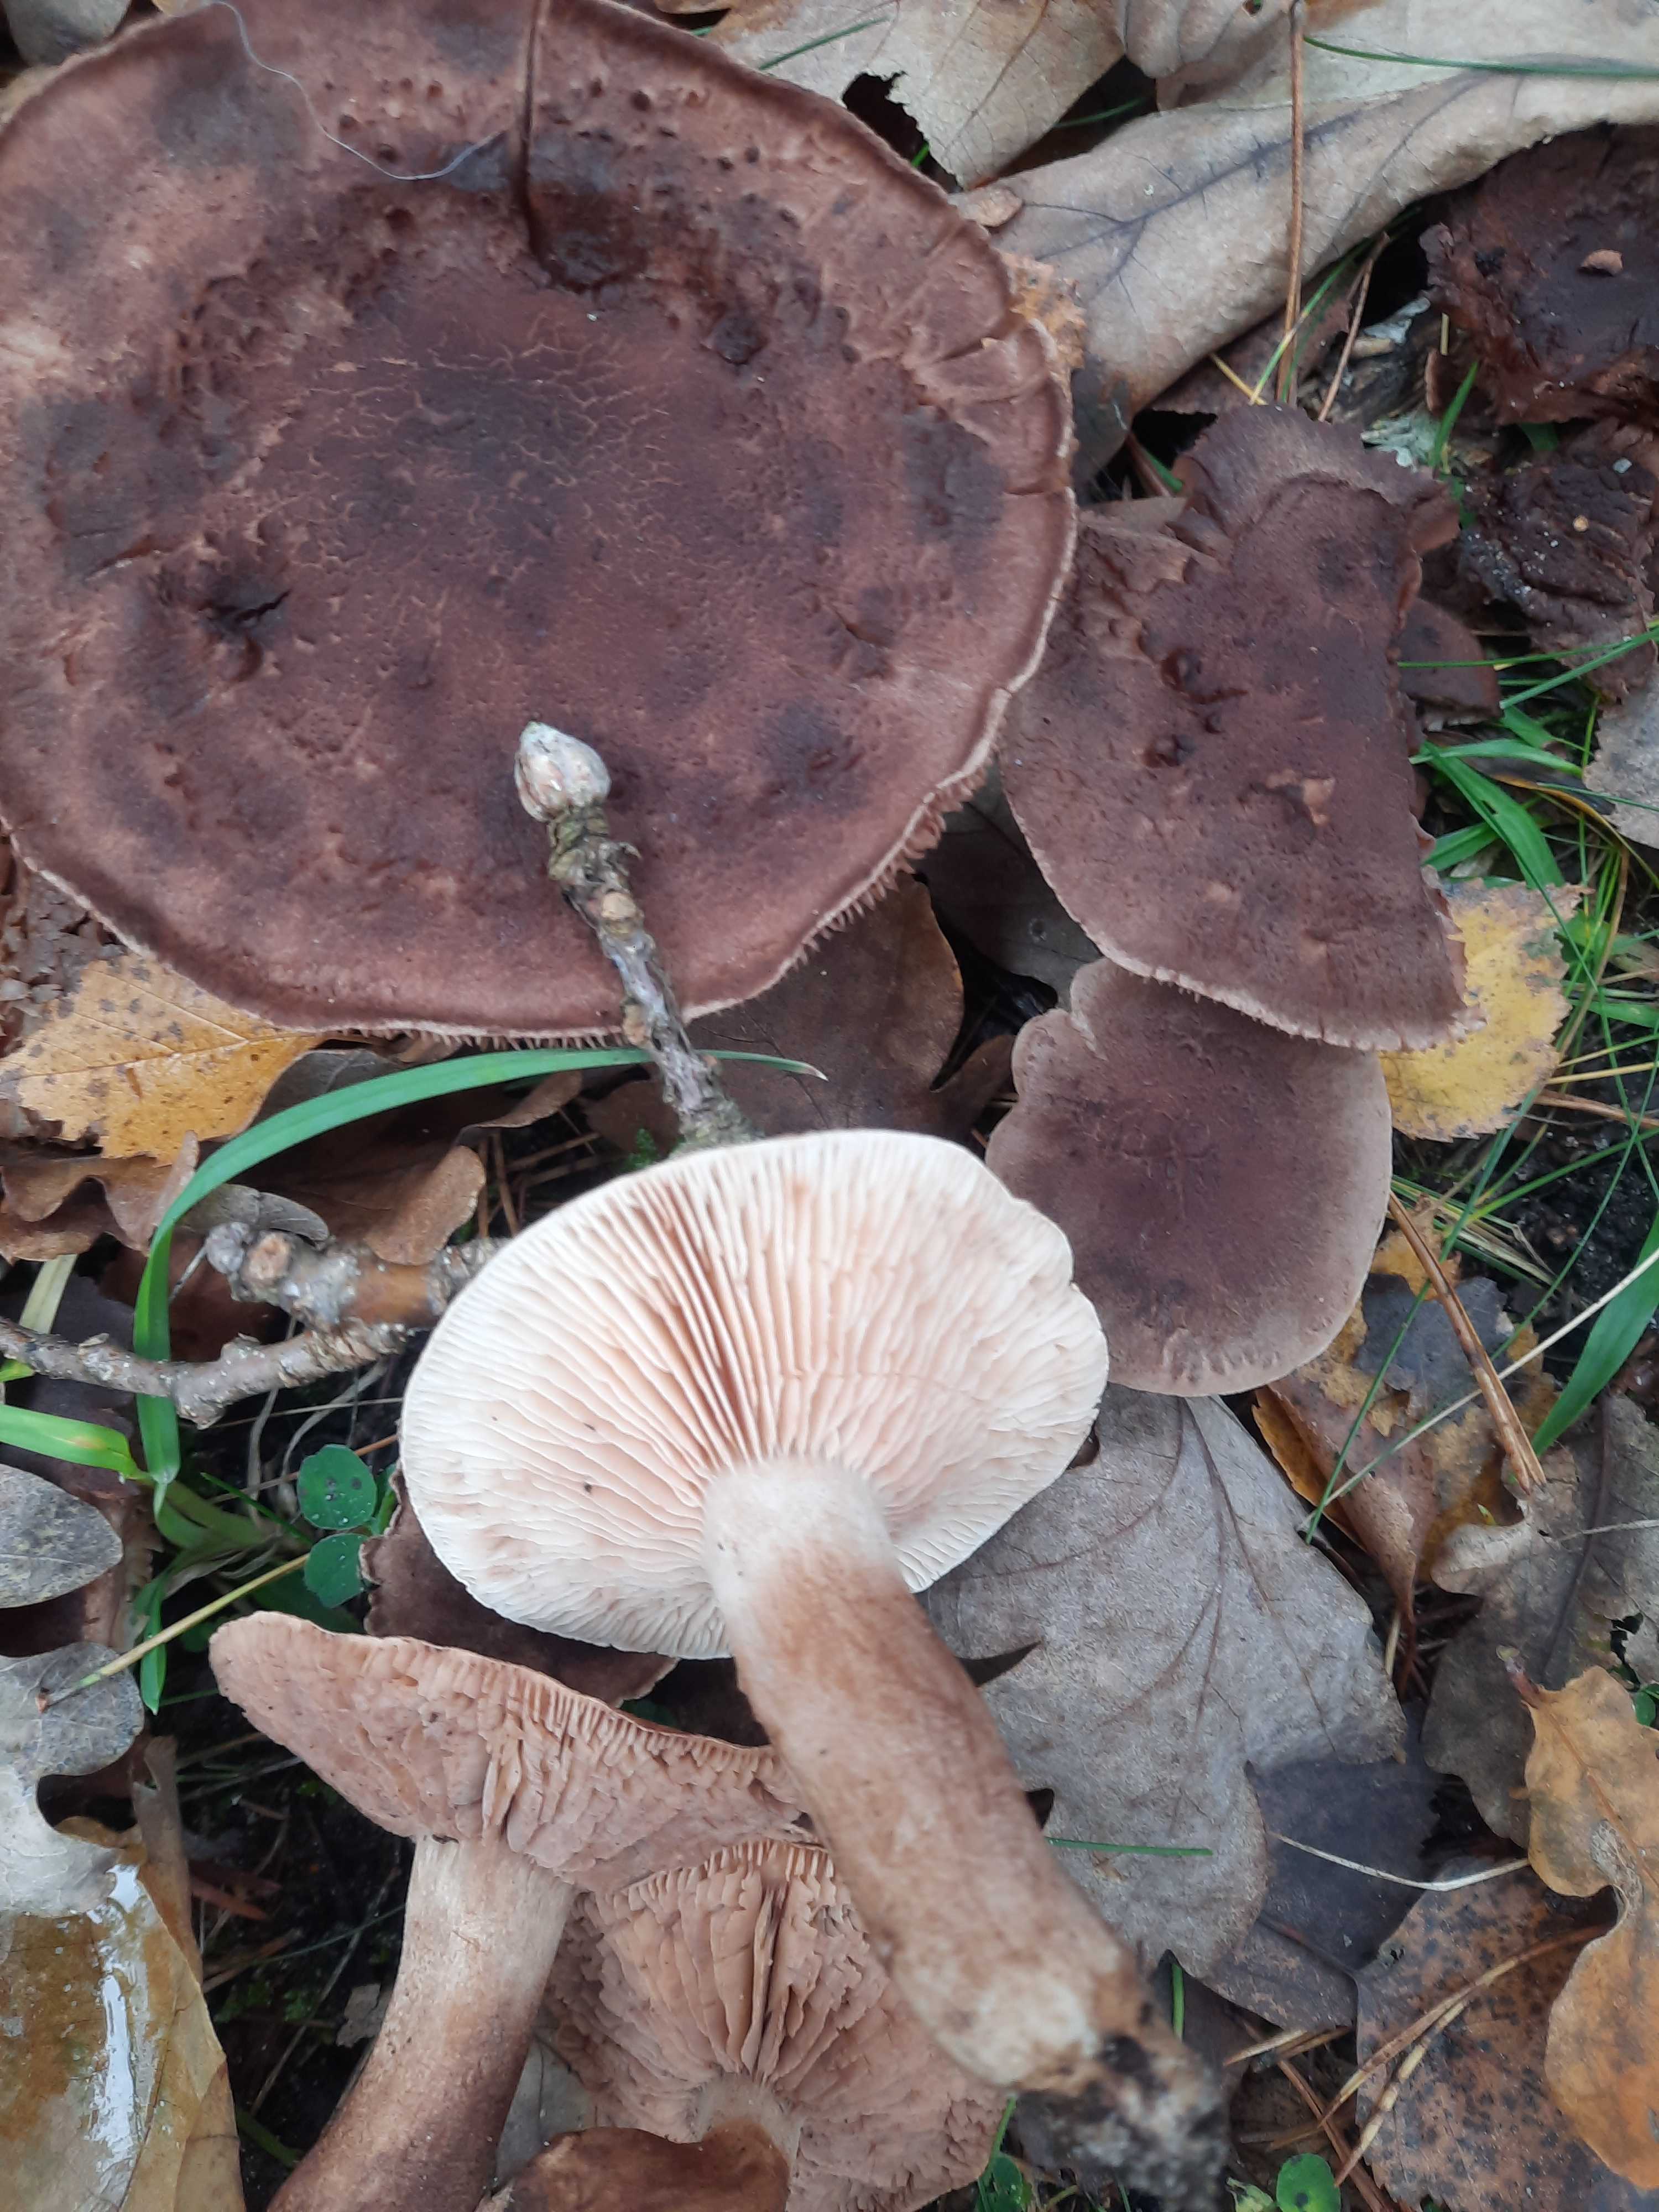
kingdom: Fungi
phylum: Basidiomycota
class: Agaricomycetes
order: Agaricales
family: Tricholomataceae
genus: Tricholoma
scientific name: Tricholoma
